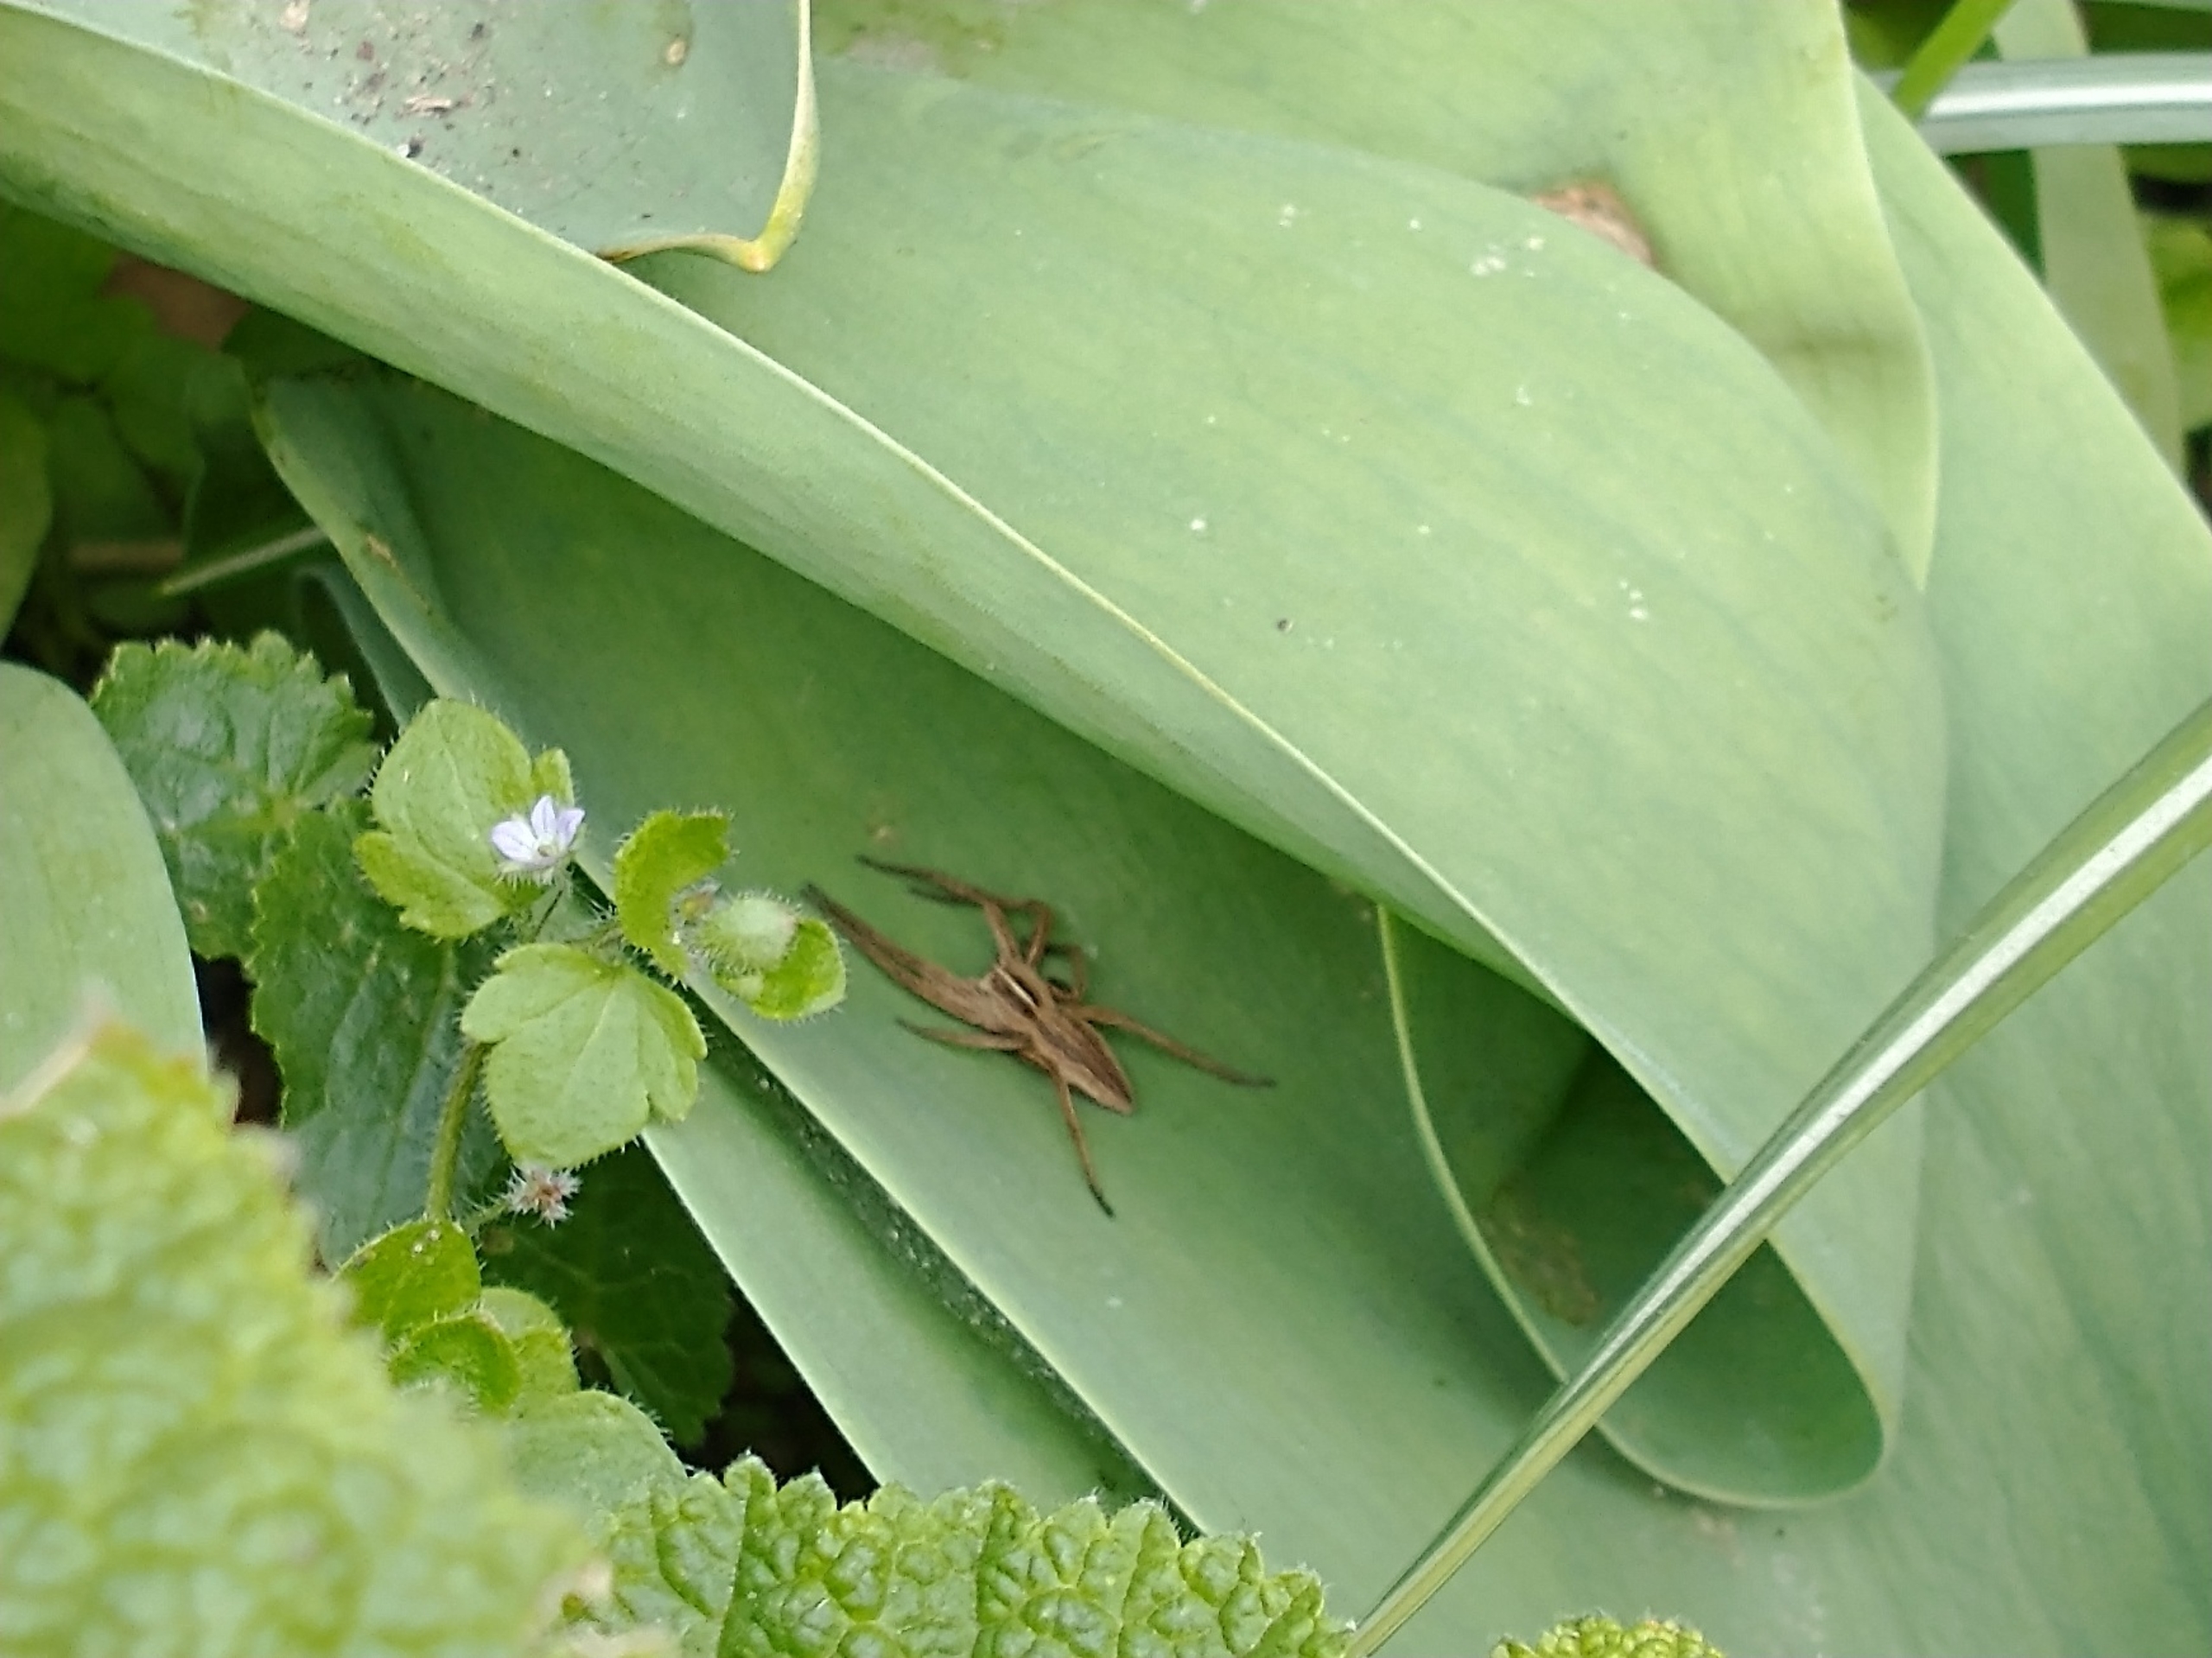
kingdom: Animalia
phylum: Arthropoda
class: Arachnida
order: Araneae
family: Pisauridae
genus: Pisaura
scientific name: Pisaura mirabilis
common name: Almindelig rovedderkop
